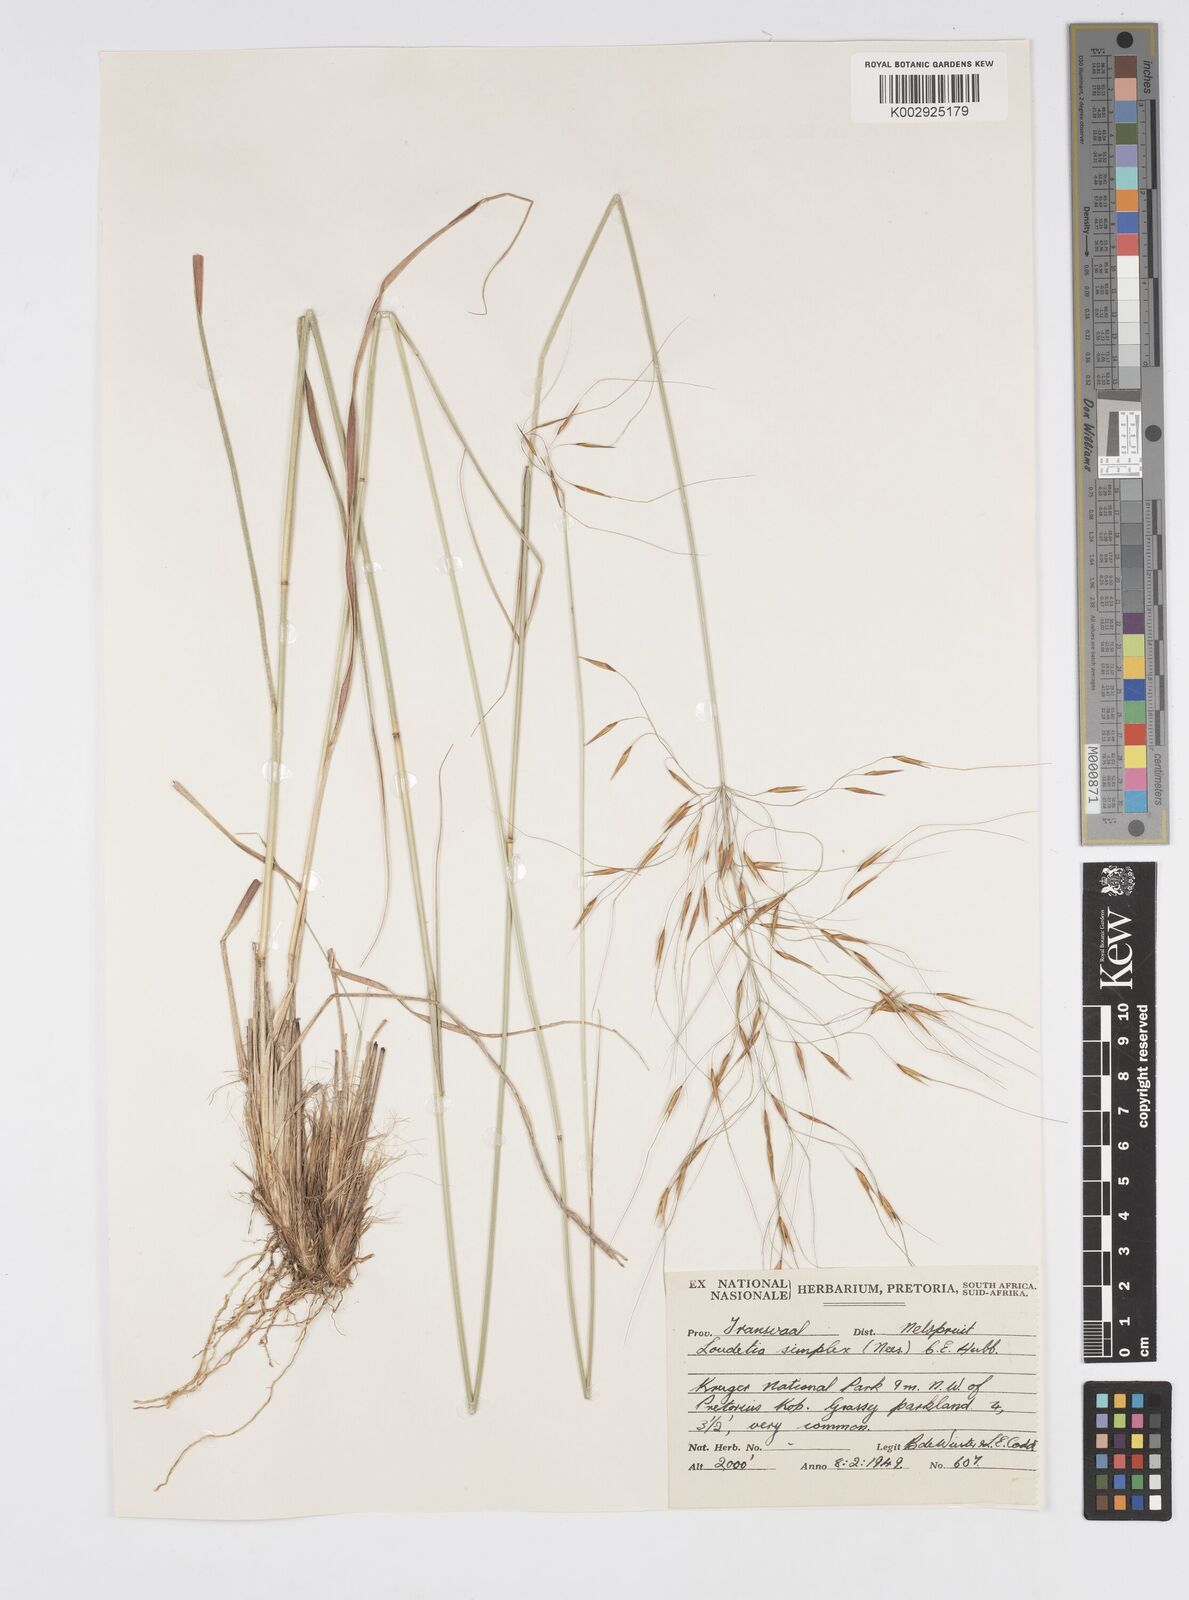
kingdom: Plantae
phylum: Tracheophyta
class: Liliopsida
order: Poales
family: Poaceae
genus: Loudetia
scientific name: Loudetia simplex
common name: Common russet grass
